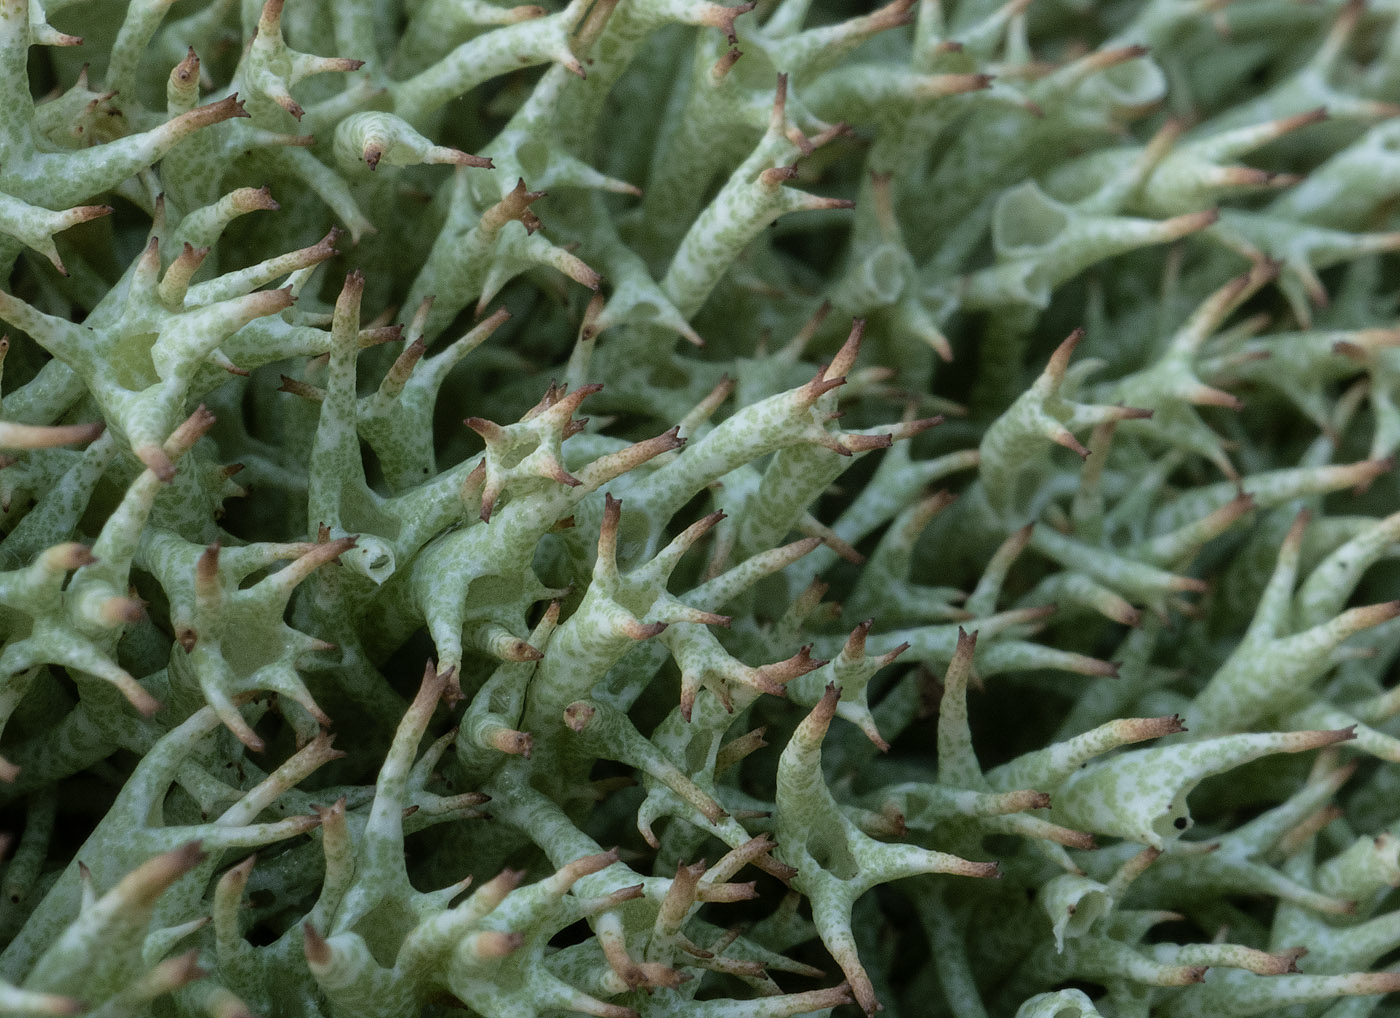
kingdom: Fungi
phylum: Ascomycota
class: Lecanoromycetes
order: Lecanorales
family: Cladoniaceae
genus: Cladonia
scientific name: Cladonia uncialis
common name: pigget bægerlav
